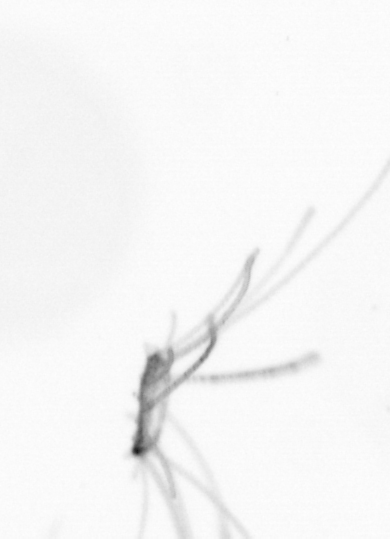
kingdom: Chromista
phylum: Ochrophyta
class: Bacillariophyceae
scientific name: Bacillariophyceae
